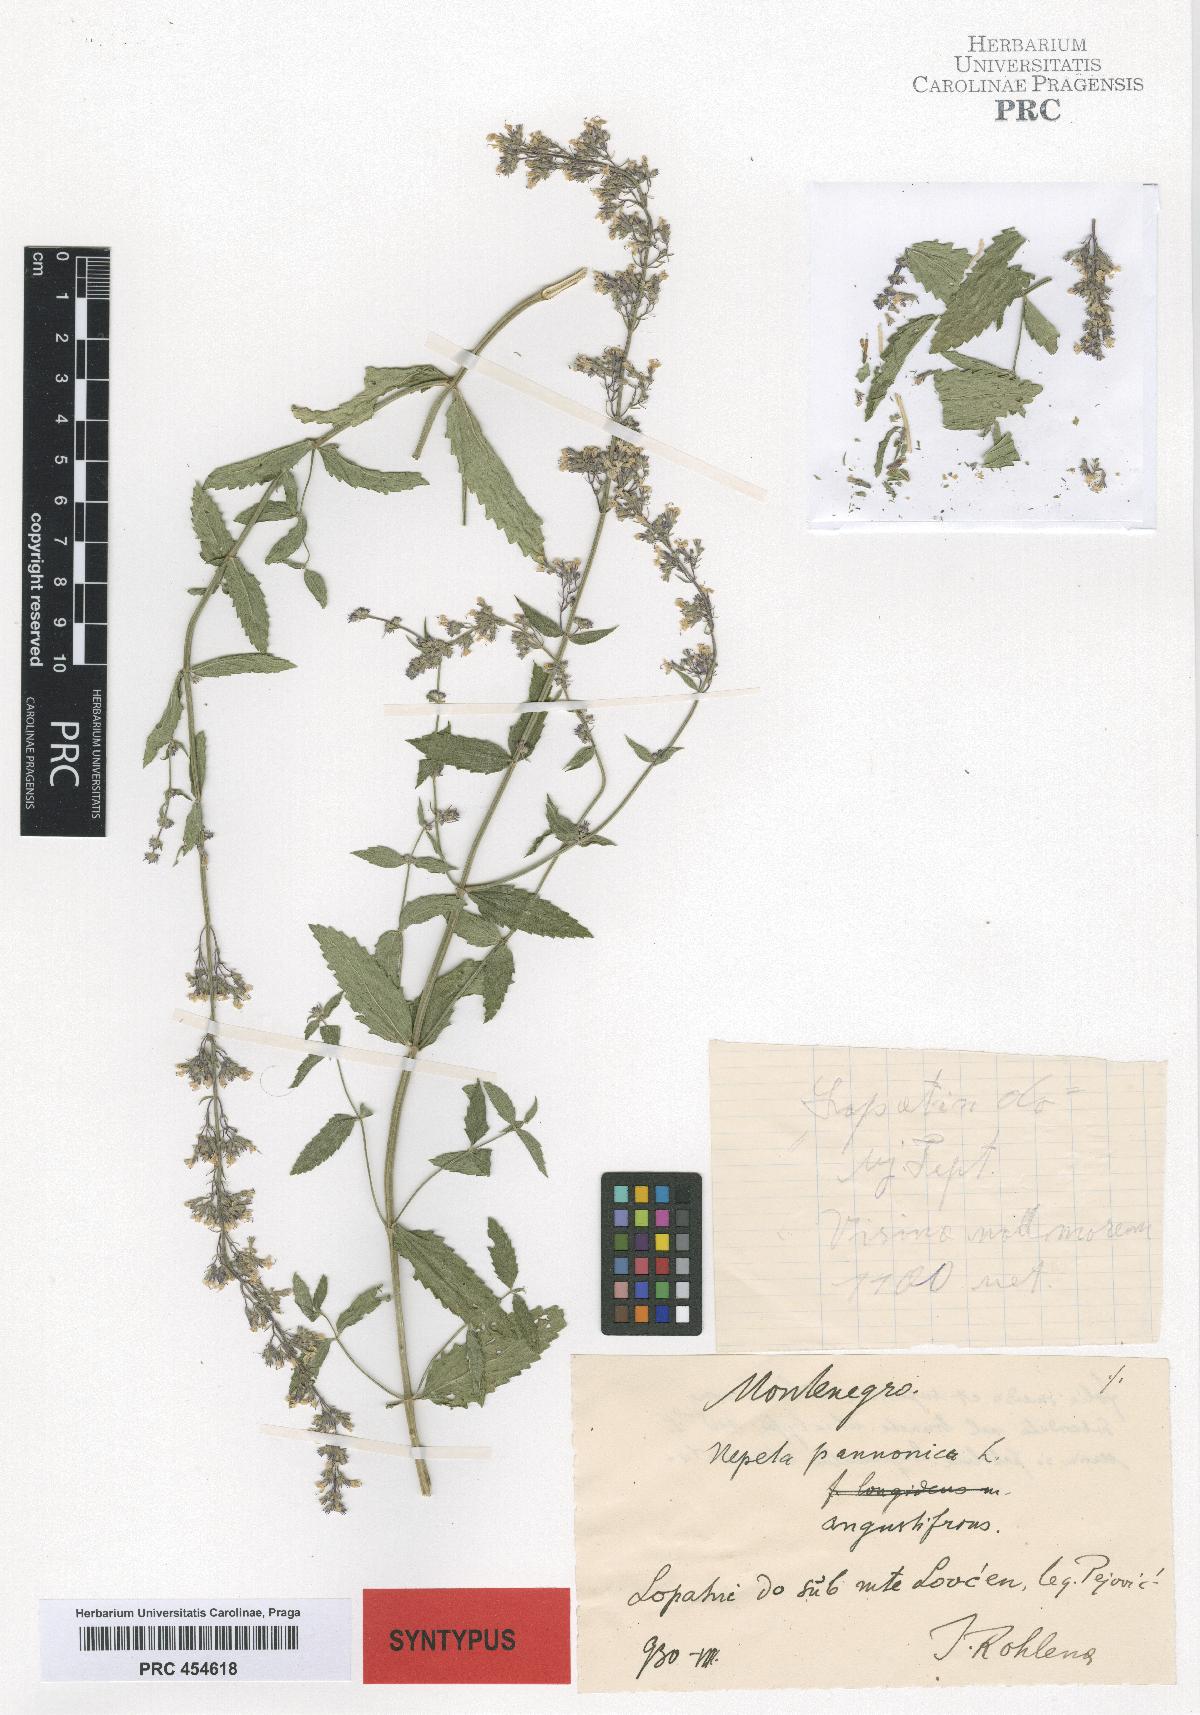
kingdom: Plantae
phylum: Tracheophyta
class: Magnoliopsida
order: Lamiales
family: Lamiaceae
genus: Nepeta
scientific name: Nepeta nuda
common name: Hairless catmint
